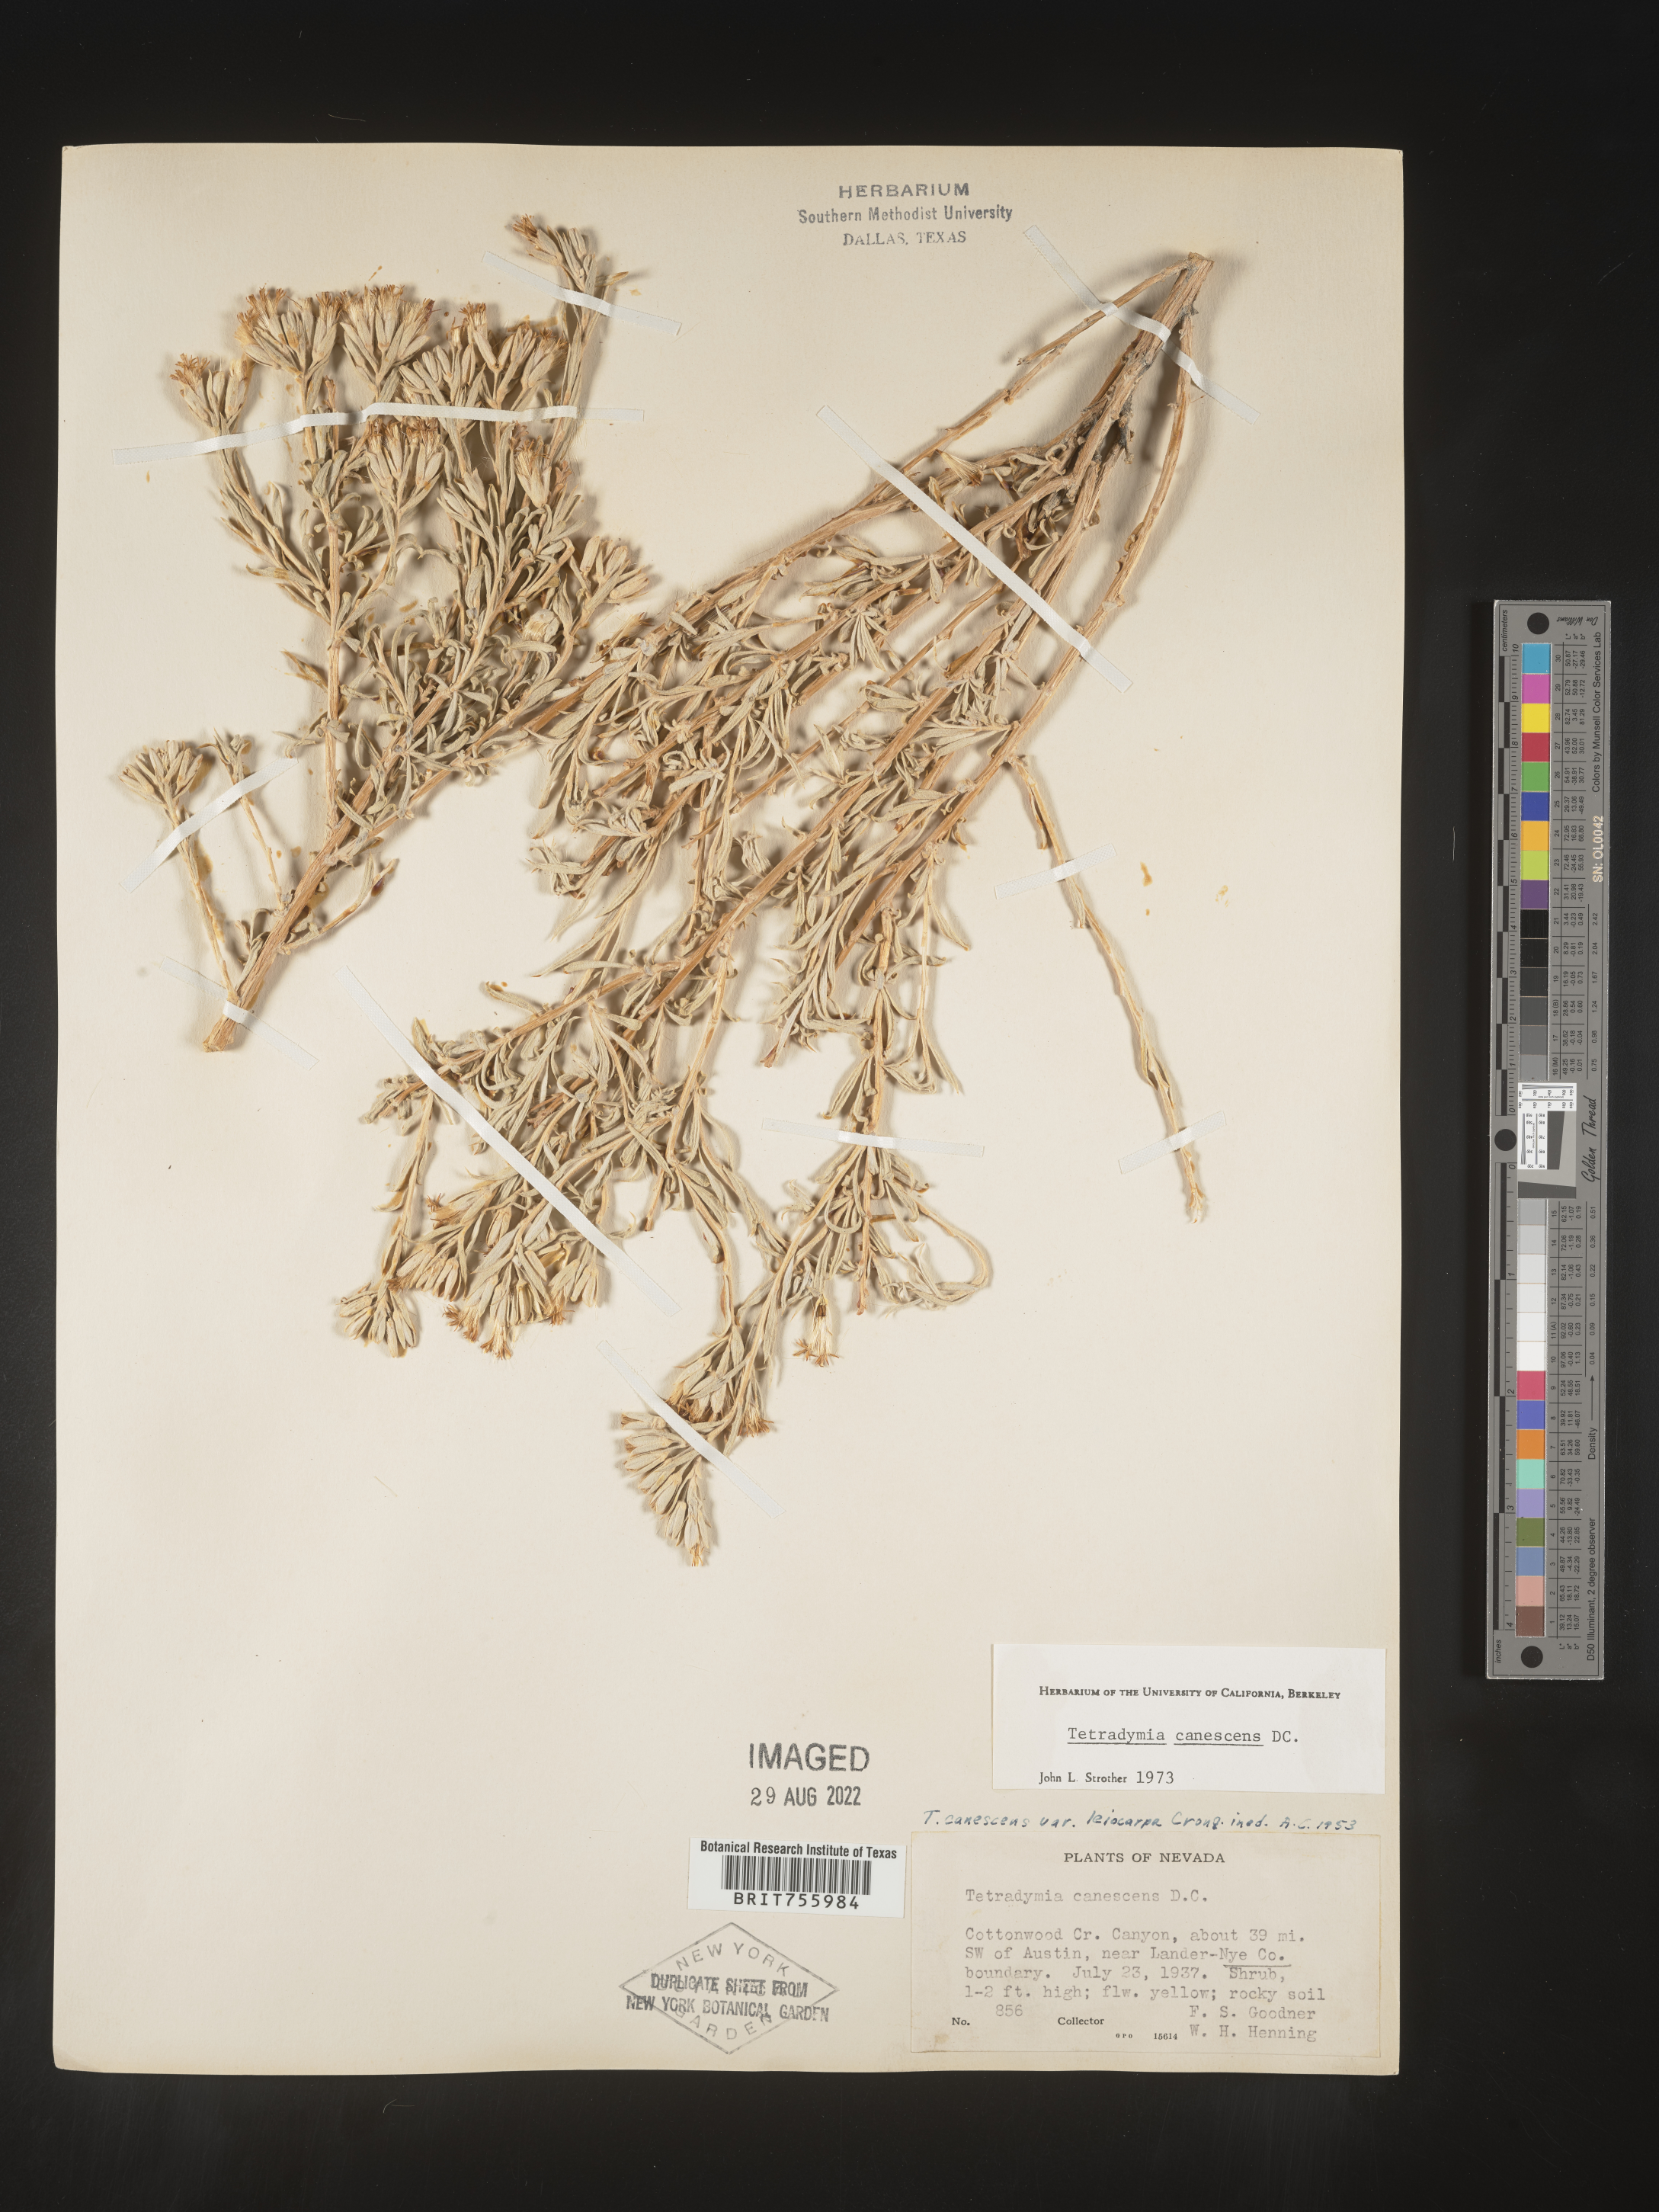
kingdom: Plantae
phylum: Tracheophyta
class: Magnoliopsida
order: Asterales
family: Asteraceae
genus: Tetradymia
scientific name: Tetradymia canescens
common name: Spineless horsebrush
